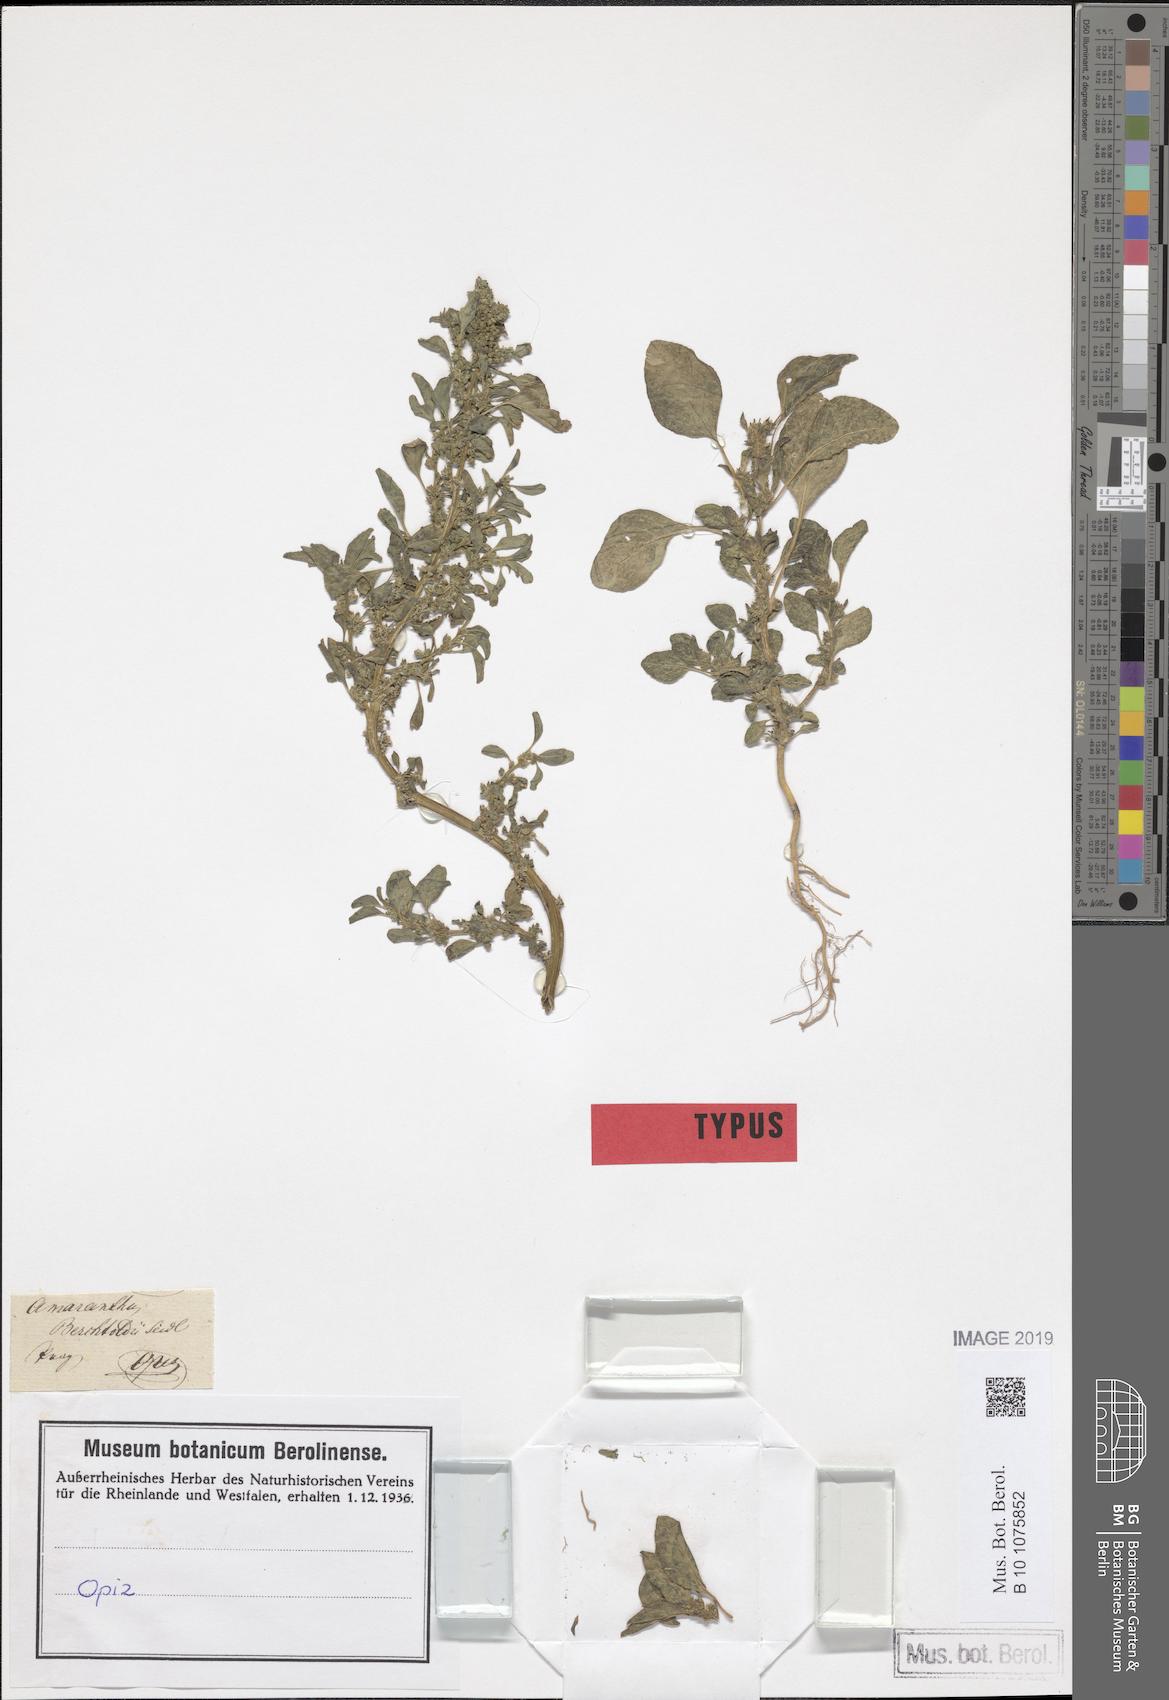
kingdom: Plantae
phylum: Tracheophyta
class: Magnoliopsida
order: Caryophyllales
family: Amaranthaceae
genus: Amaranthus
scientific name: Amaranthus blitum
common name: Purple amaranth
